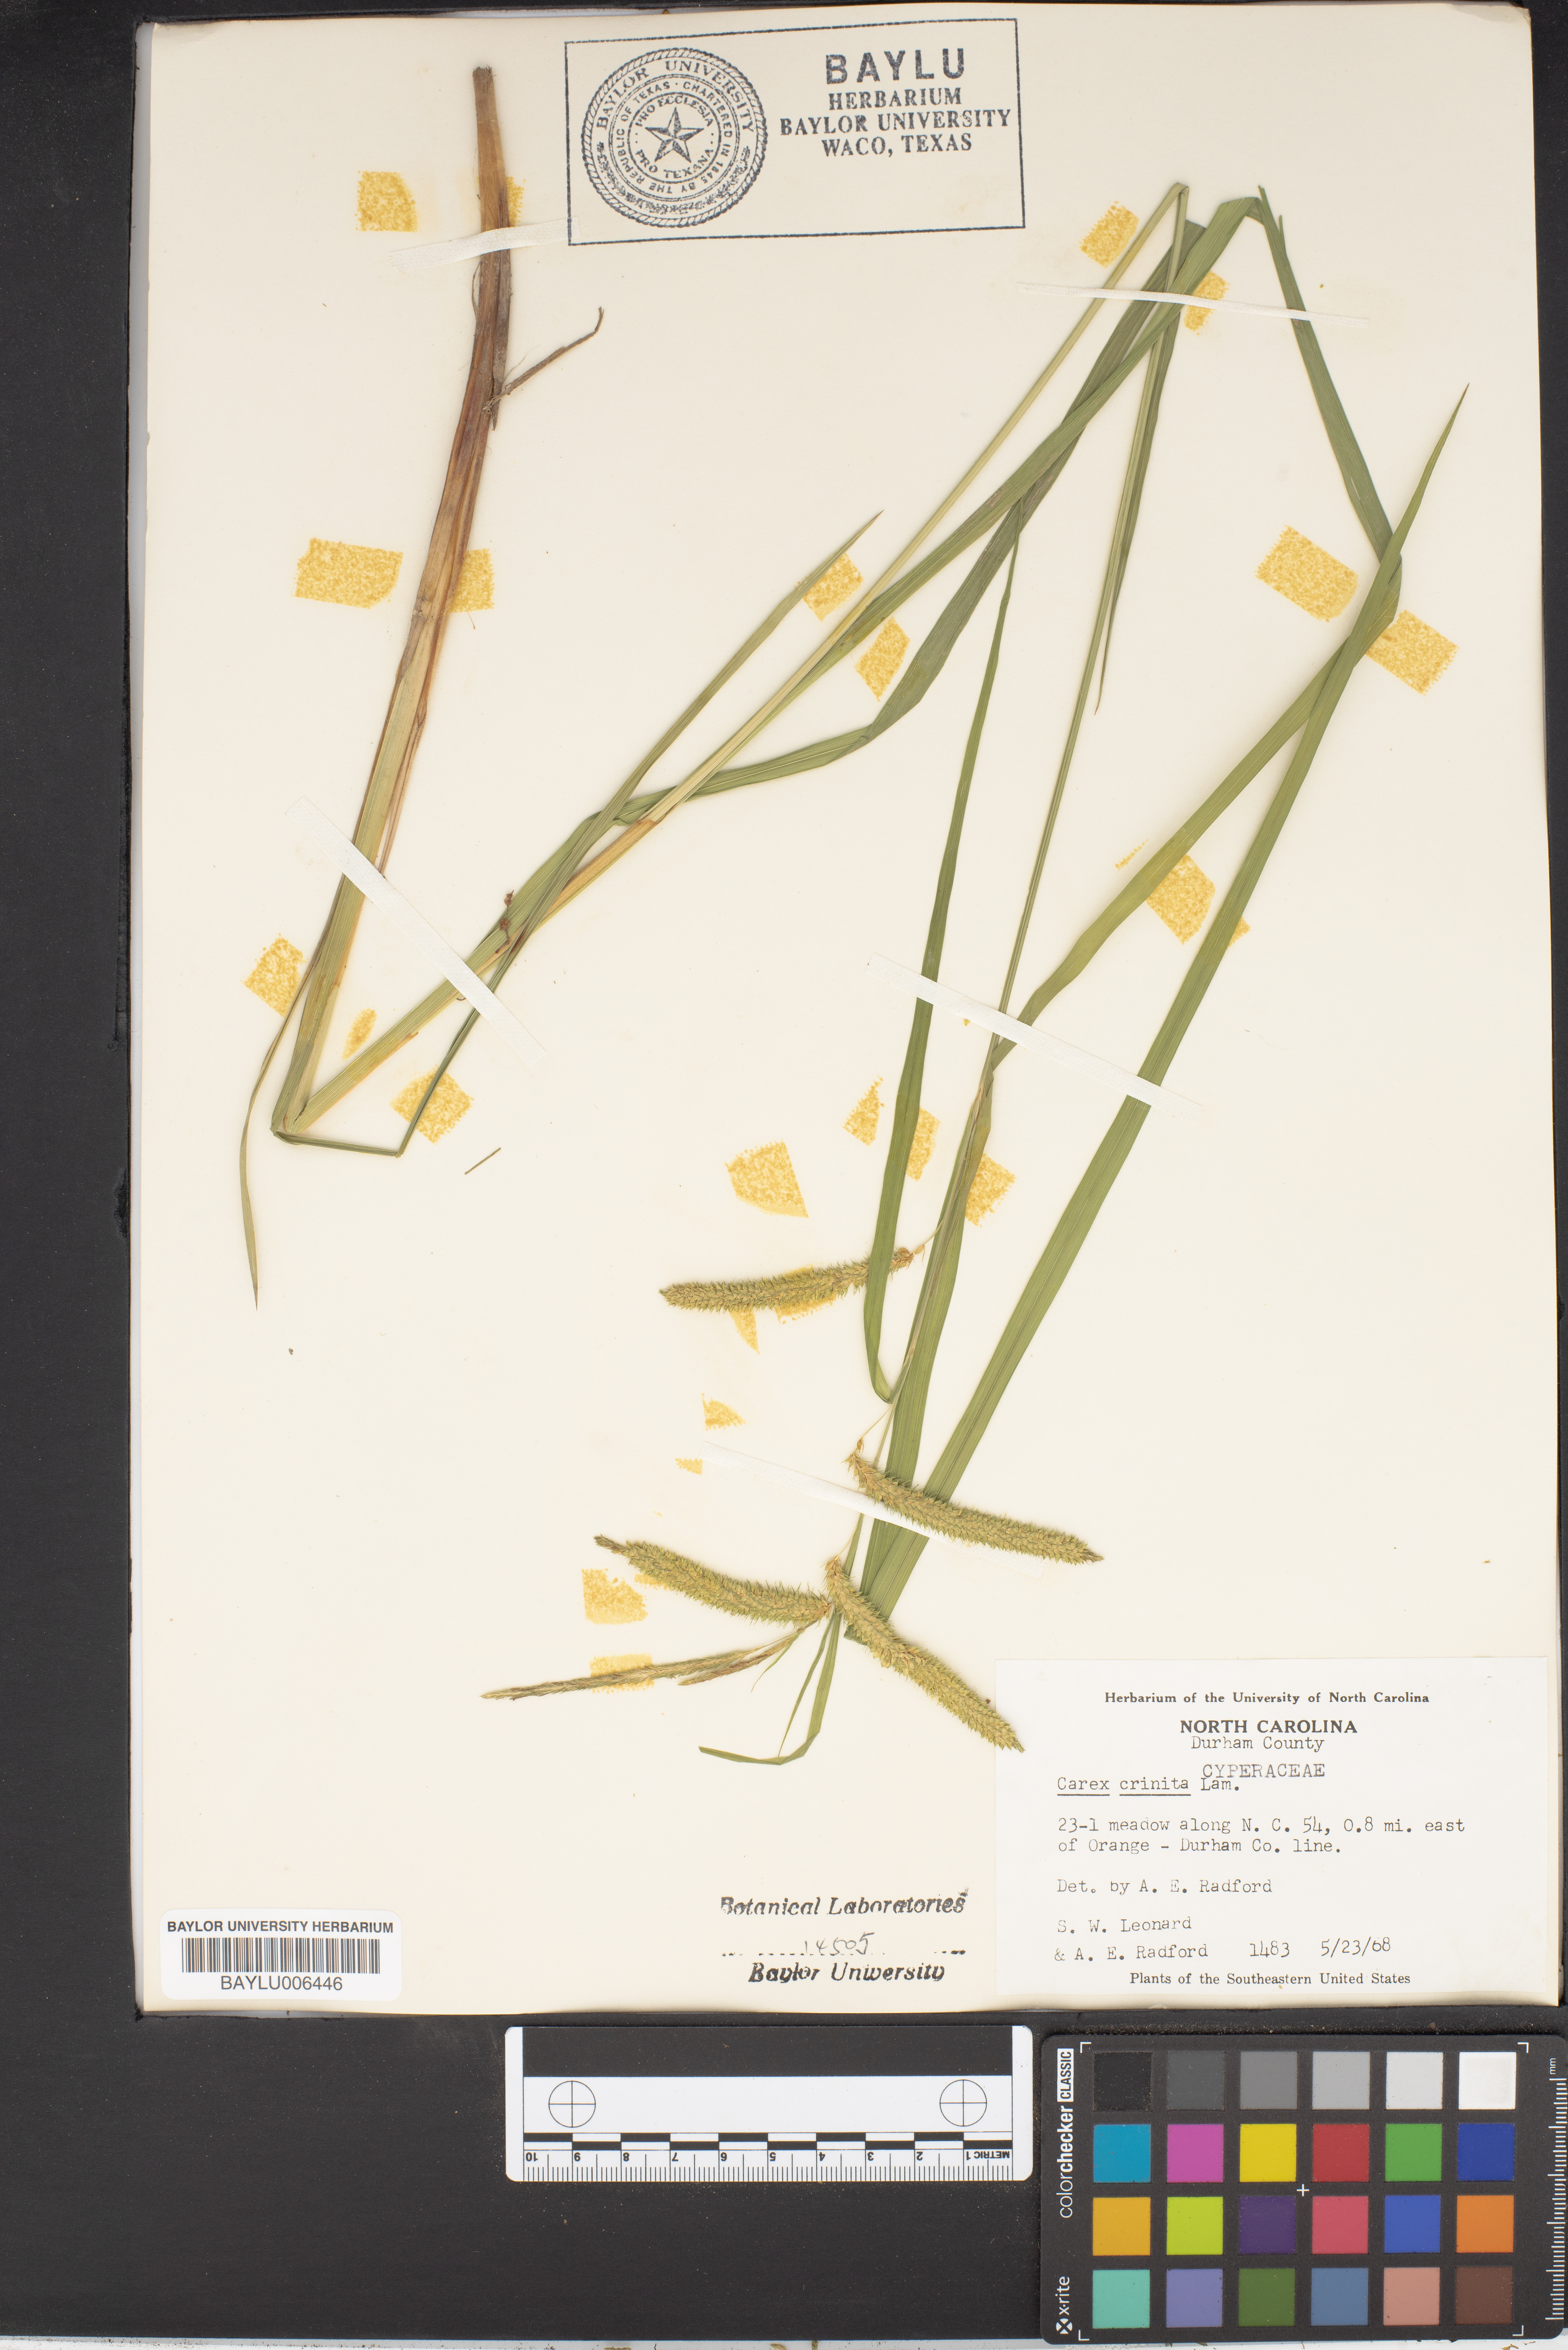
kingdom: Plantae
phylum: Tracheophyta
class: Liliopsida
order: Poales
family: Cyperaceae
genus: Carex
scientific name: Carex crinita
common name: Fringed sedge
